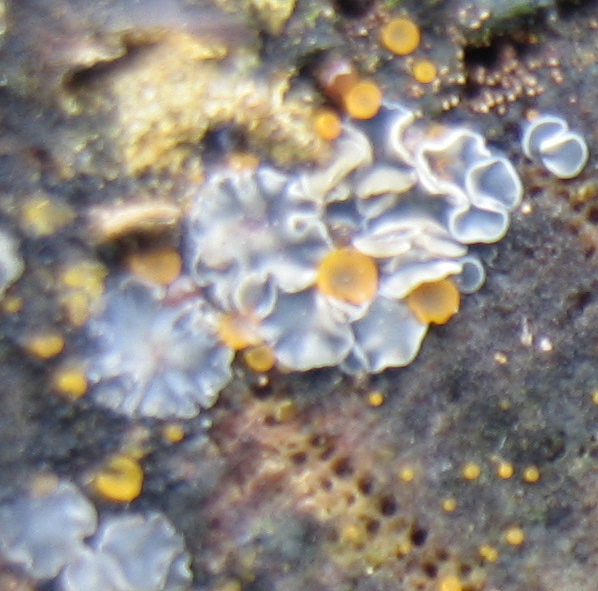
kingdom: Fungi
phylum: Ascomycota
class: Leotiomycetes
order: Helotiales
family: Mollisiaceae
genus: Mollisia
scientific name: Mollisia
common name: gråskive
